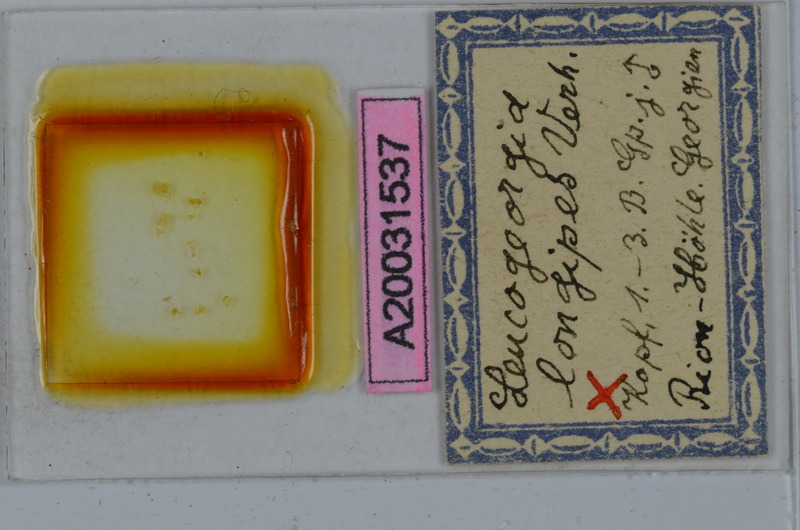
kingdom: Animalia
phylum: Arthropoda
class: Diplopoda
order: Julida
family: Julidae
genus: Leucogeorgia
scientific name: Leucogeorgia longipes
